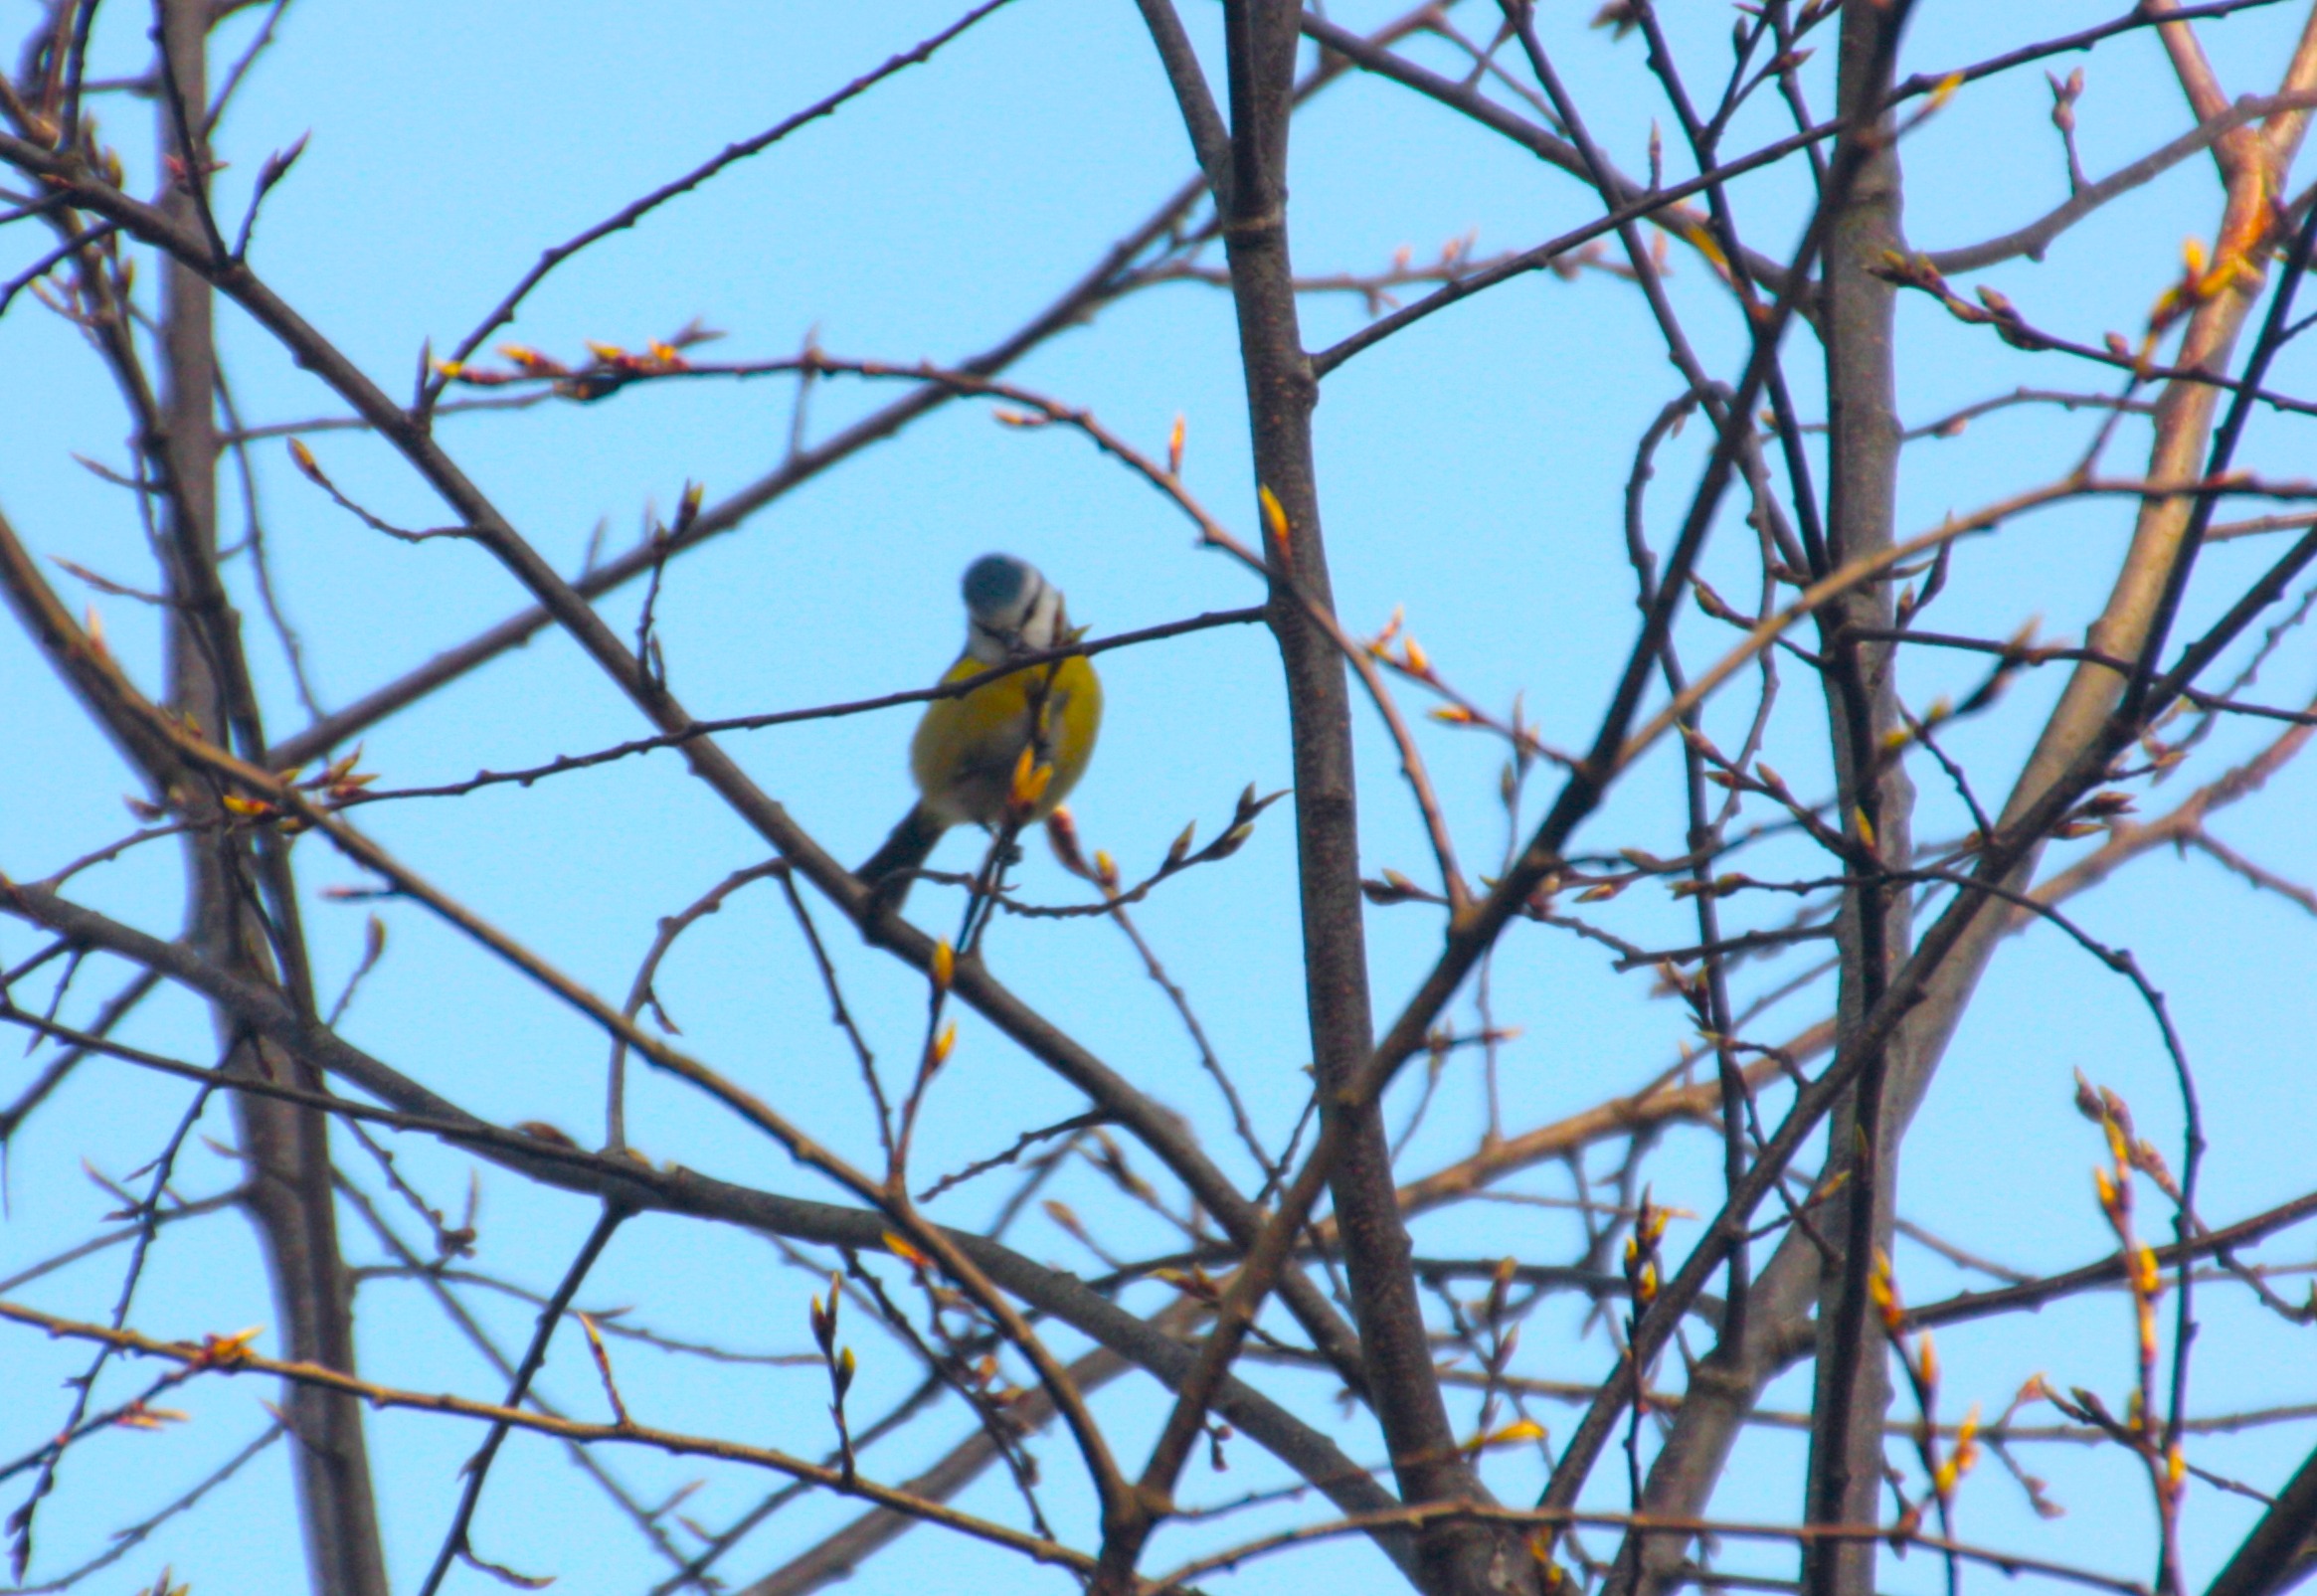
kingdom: Animalia
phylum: Chordata
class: Aves
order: Passeriformes
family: Paridae
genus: Cyanistes
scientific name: Cyanistes caeruleus
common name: Blåmejse
